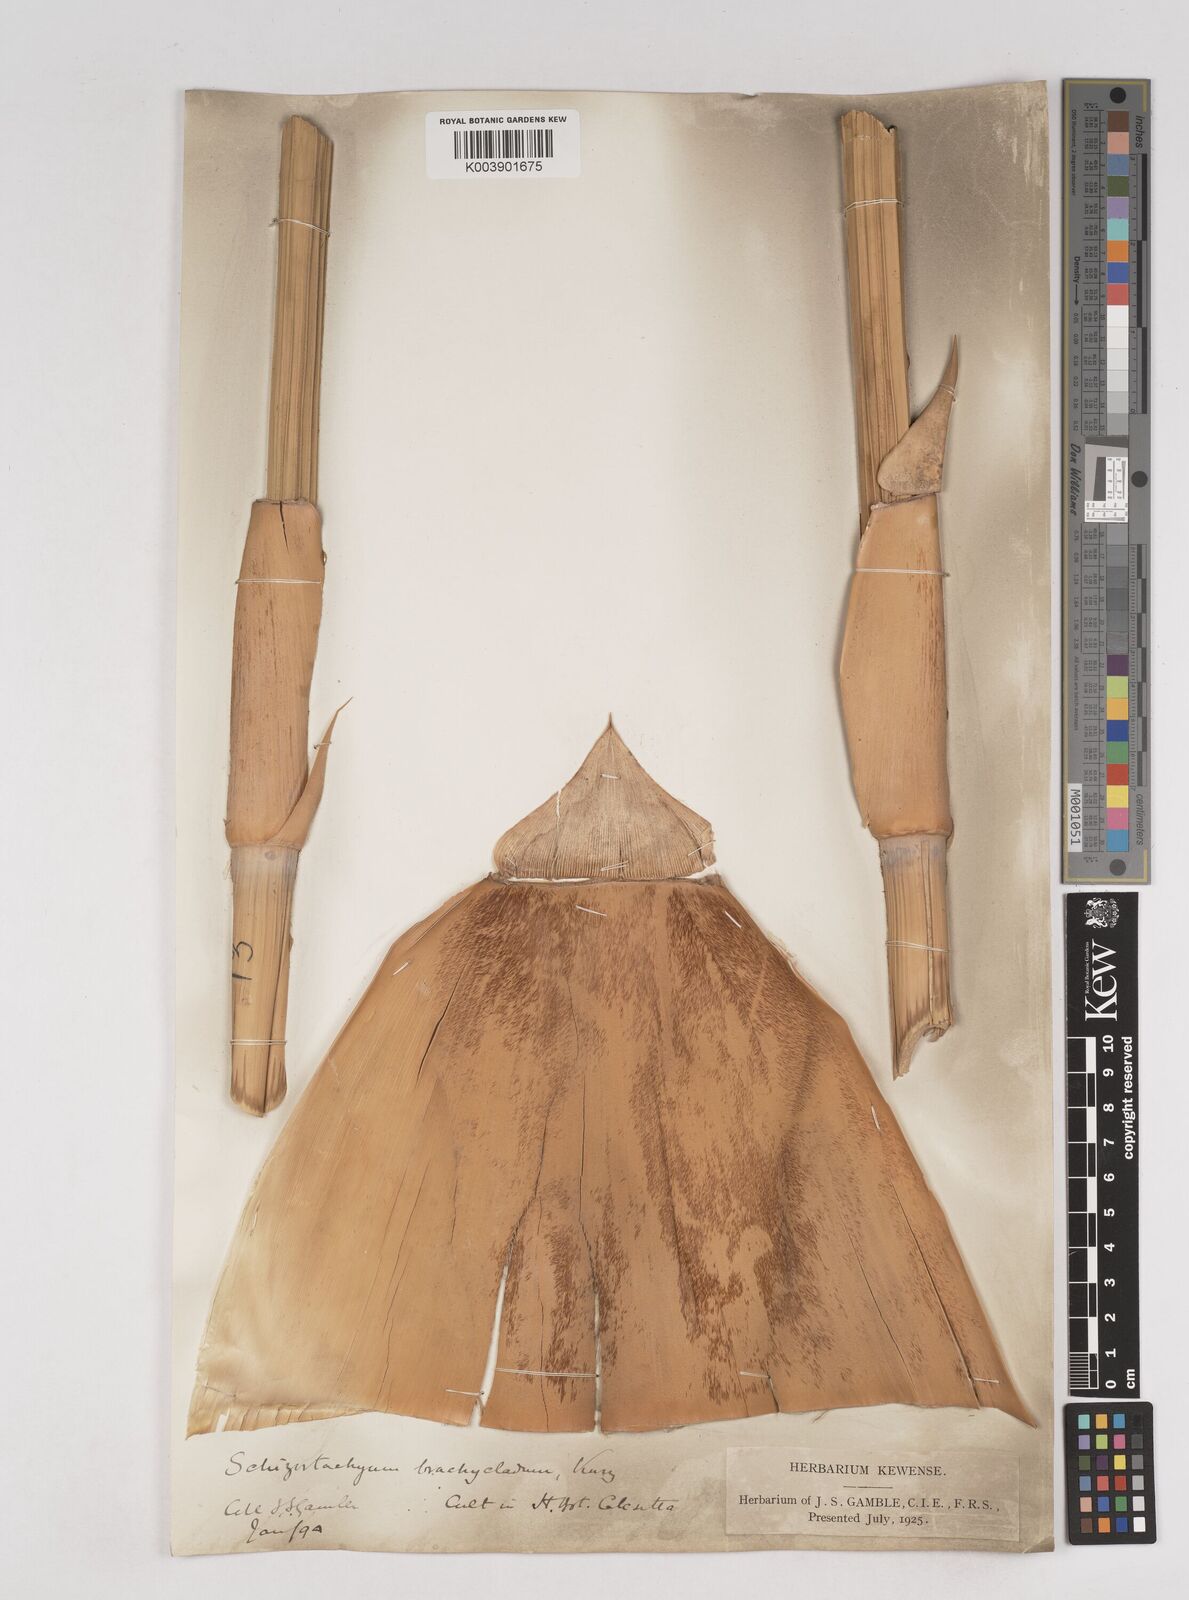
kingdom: Plantae
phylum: Tracheophyta
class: Liliopsida
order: Poales
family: Poaceae
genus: Schizostachyum
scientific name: Schizostachyum brachycladum
